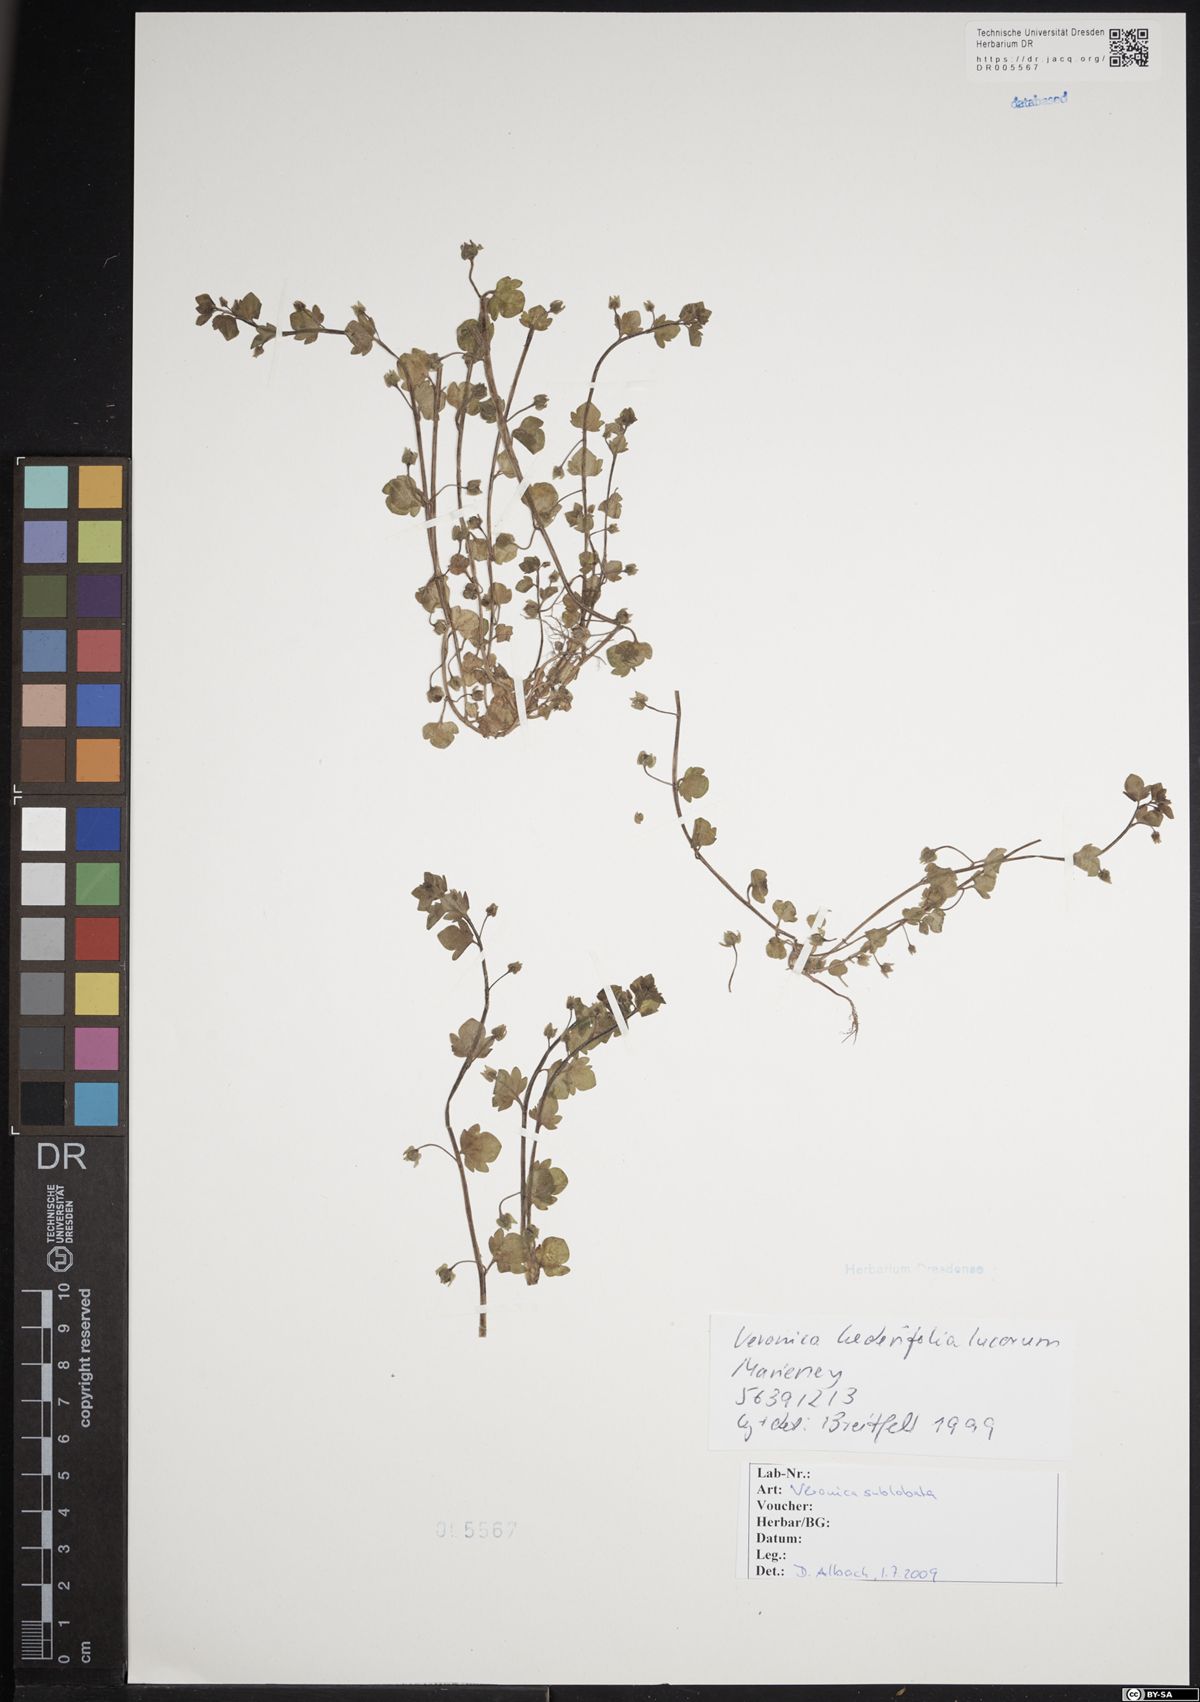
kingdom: Plantae
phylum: Tracheophyta
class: Magnoliopsida
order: Lamiales
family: Plantaginaceae
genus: Veronica
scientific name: Veronica sublobata
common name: False ivy-leaved speedwell
